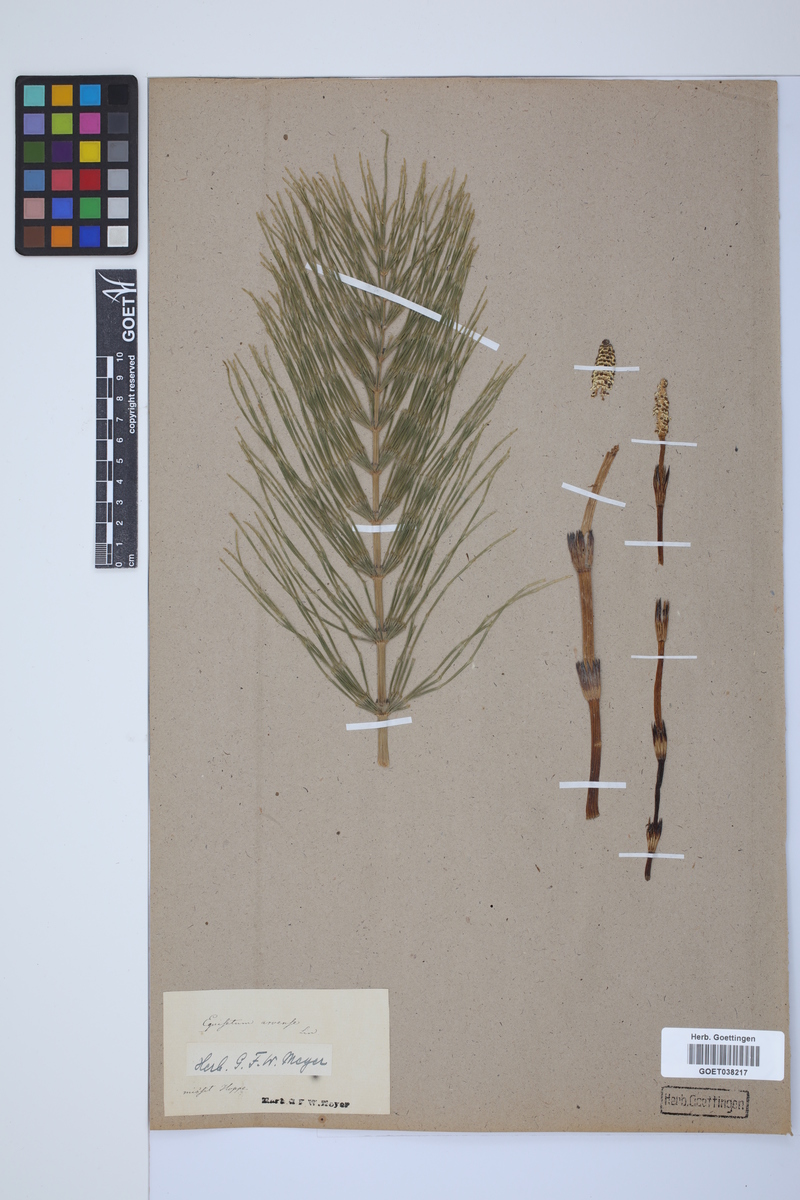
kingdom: Plantae
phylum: Tracheophyta
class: Polypodiopsida
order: Equisetales
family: Equisetaceae
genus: Equisetum
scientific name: Equisetum arvense
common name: Field horsetail
